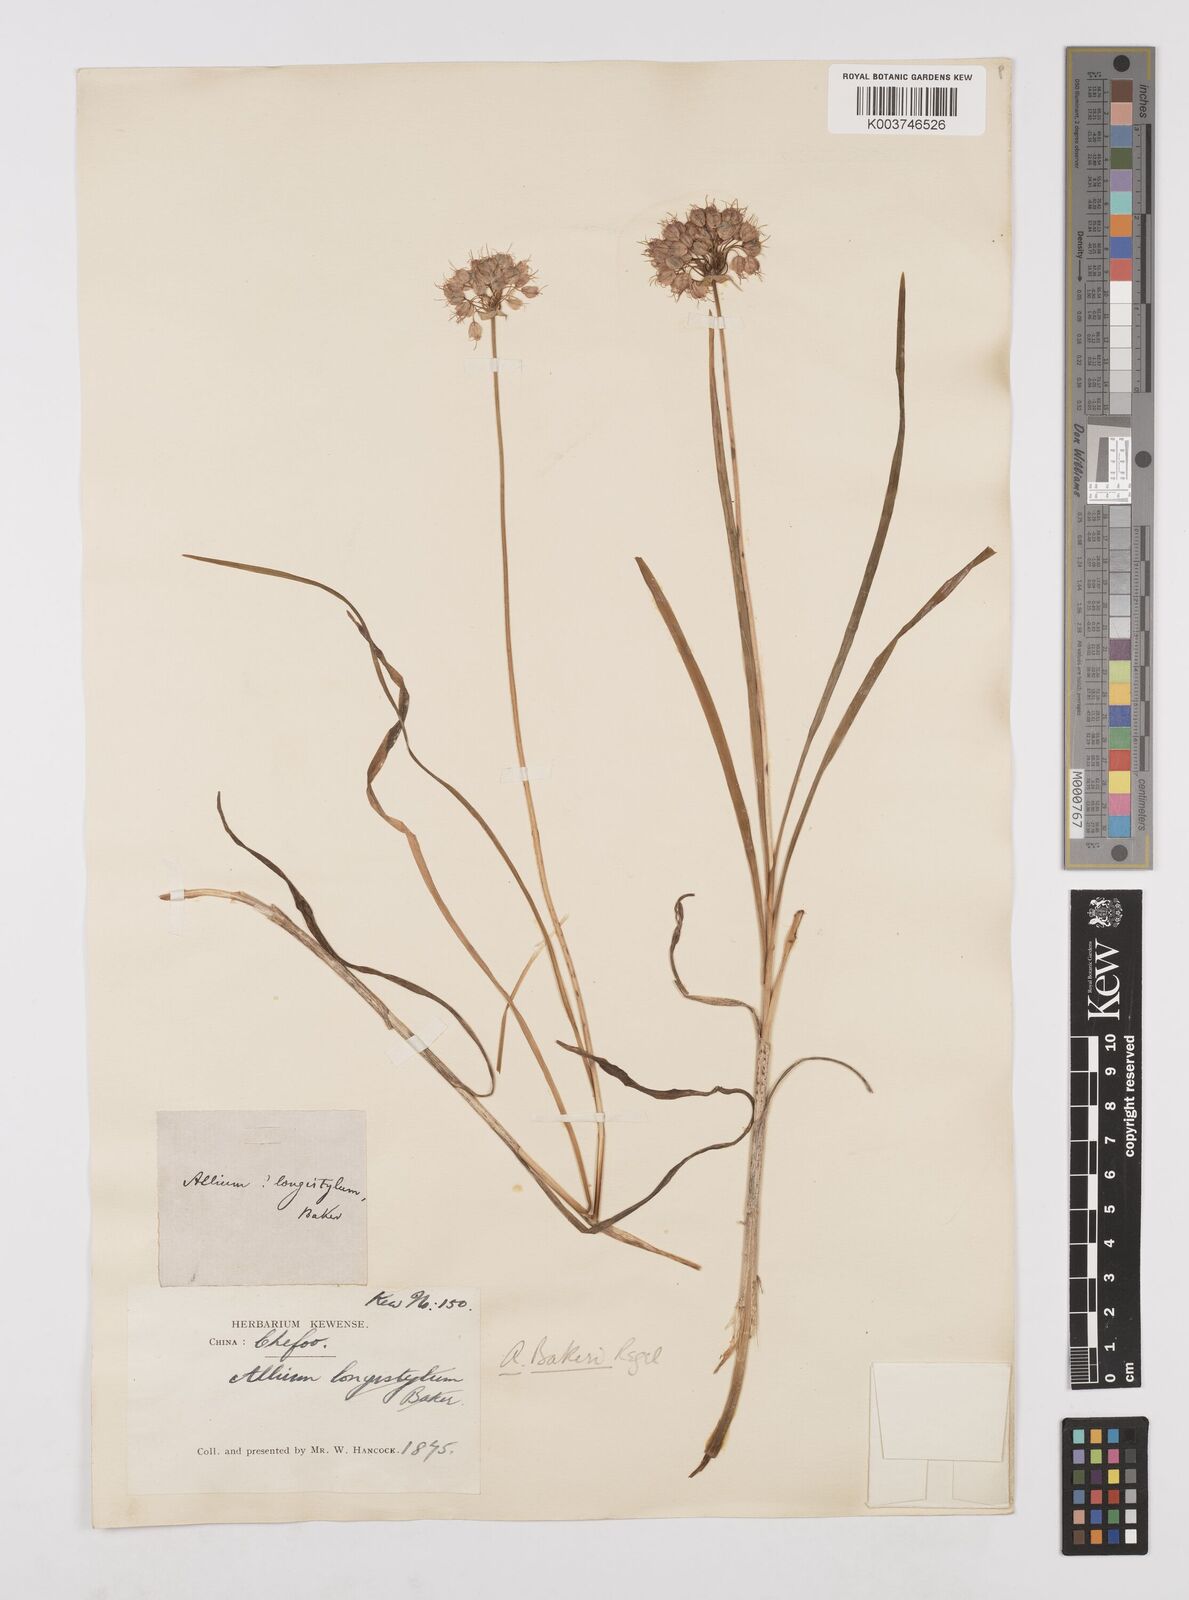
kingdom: Plantae
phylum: Tracheophyta
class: Liliopsida
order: Asparagales
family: Amaryllidaceae
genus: Allium
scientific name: Allium chinense
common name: Japanese scallion
